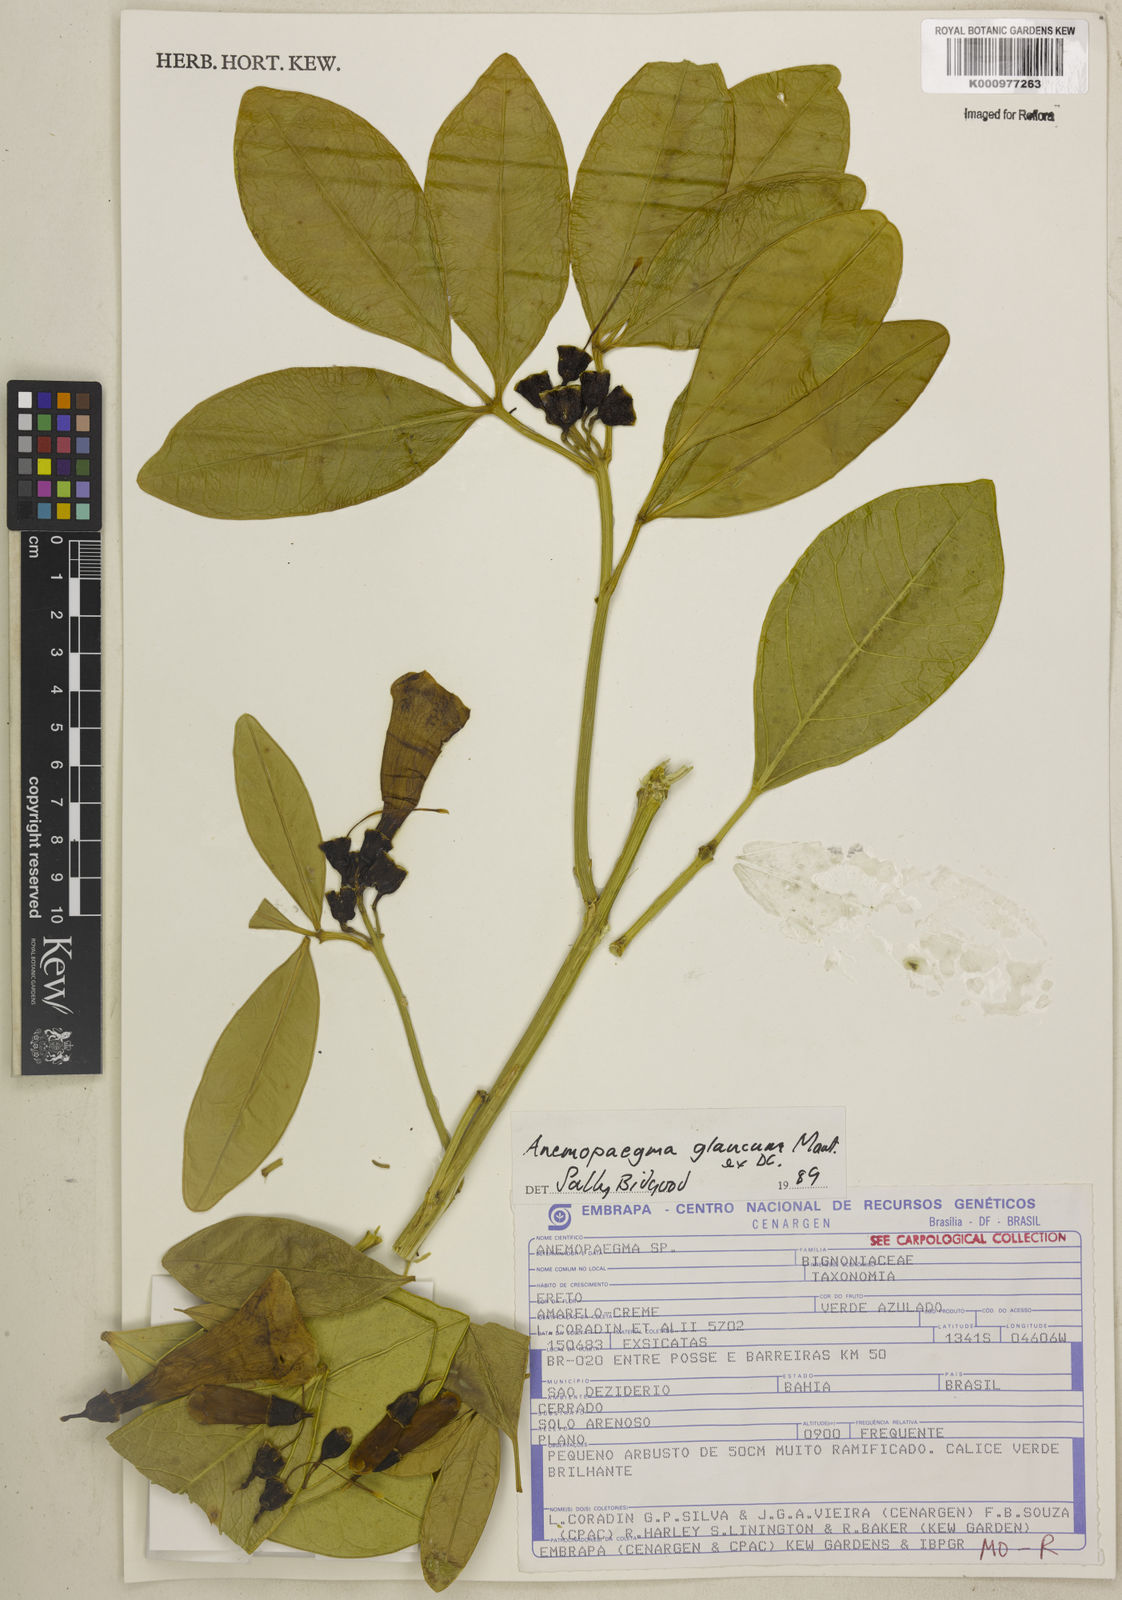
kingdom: Plantae
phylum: Tracheophyta
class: Magnoliopsida
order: Lamiales
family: Bignoniaceae
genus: Anemopaegma
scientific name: Anemopaegma glaucum
